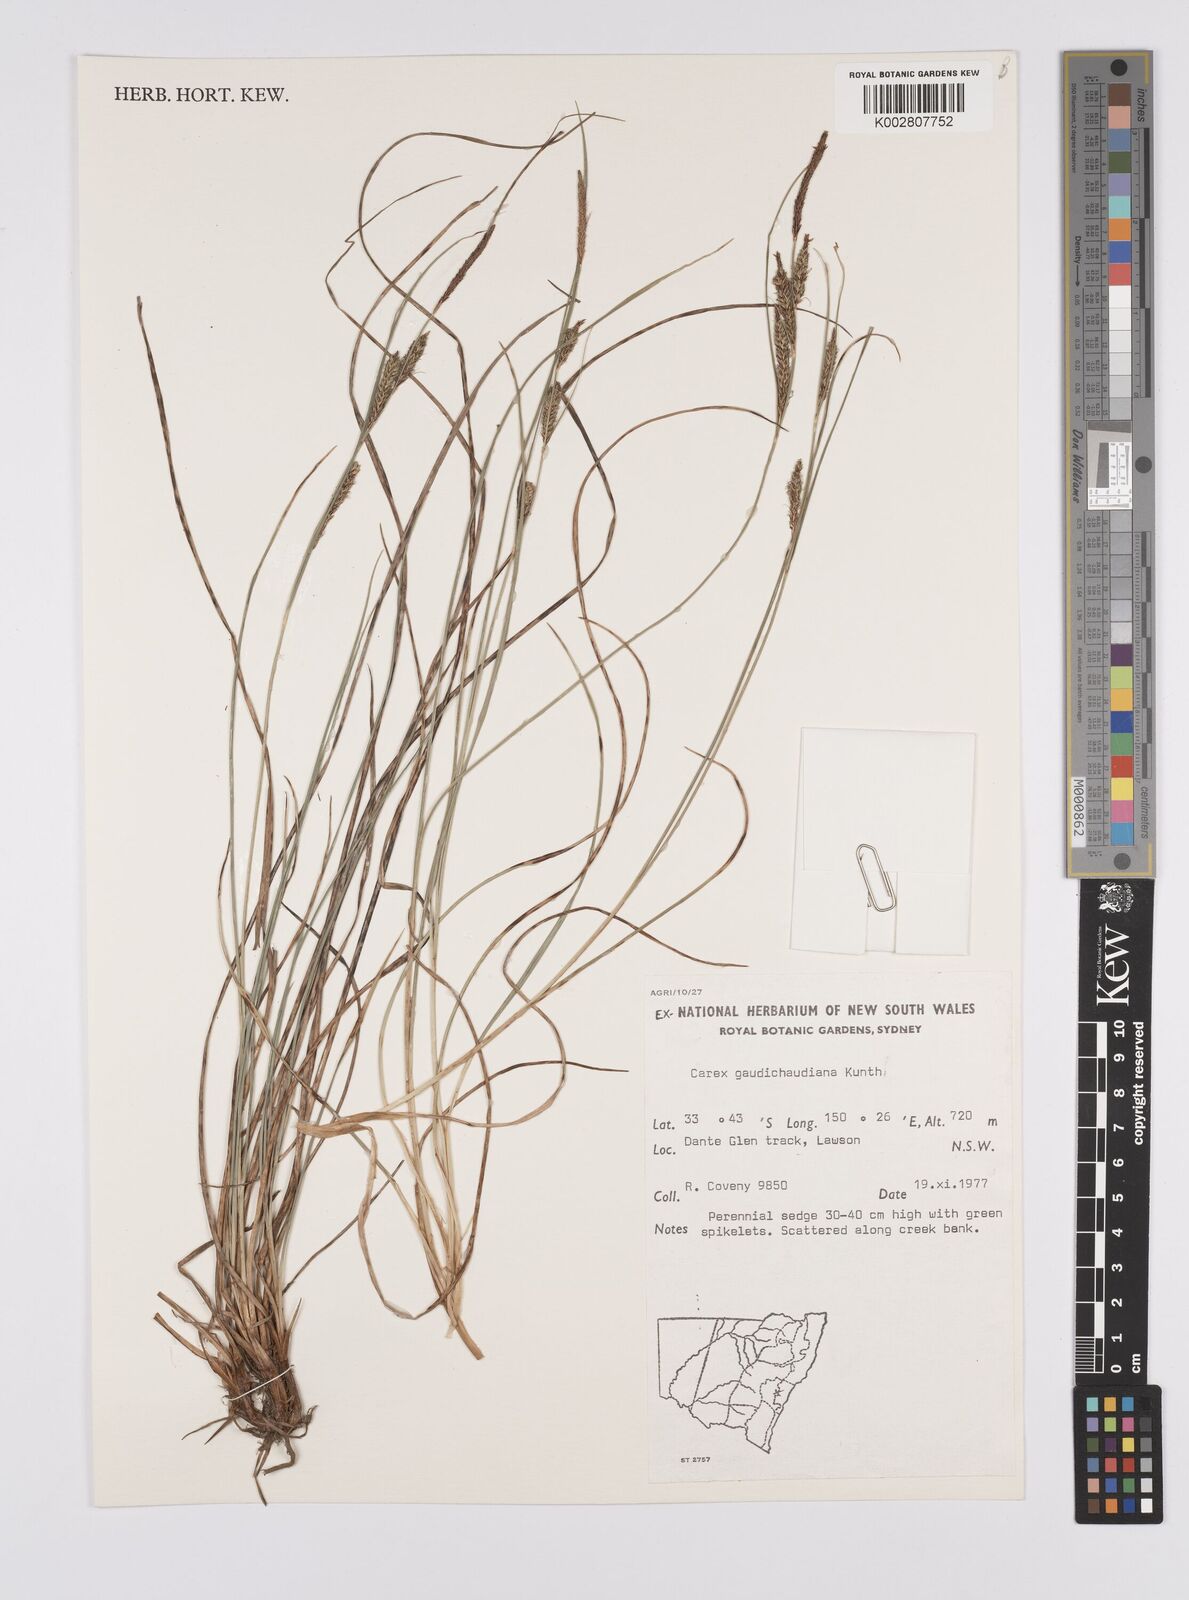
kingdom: Plantae
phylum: Tracheophyta
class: Liliopsida
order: Poales
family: Cyperaceae
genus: Carex
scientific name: Carex gaudichaudiana
